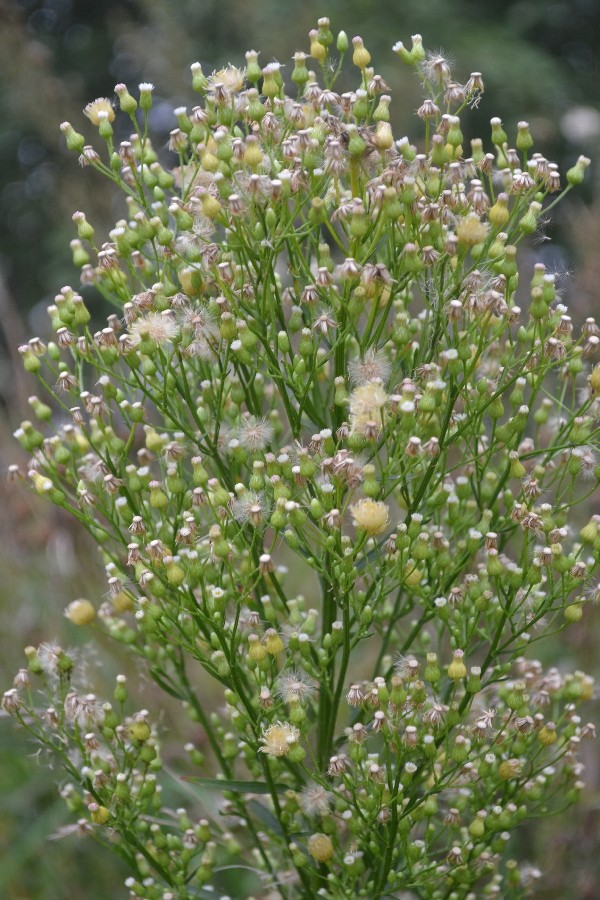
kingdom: Plantae
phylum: Tracheophyta
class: Magnoliopsida
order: Asterales
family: Asteraceae
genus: Erigeron
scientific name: Erigeron canadensis
